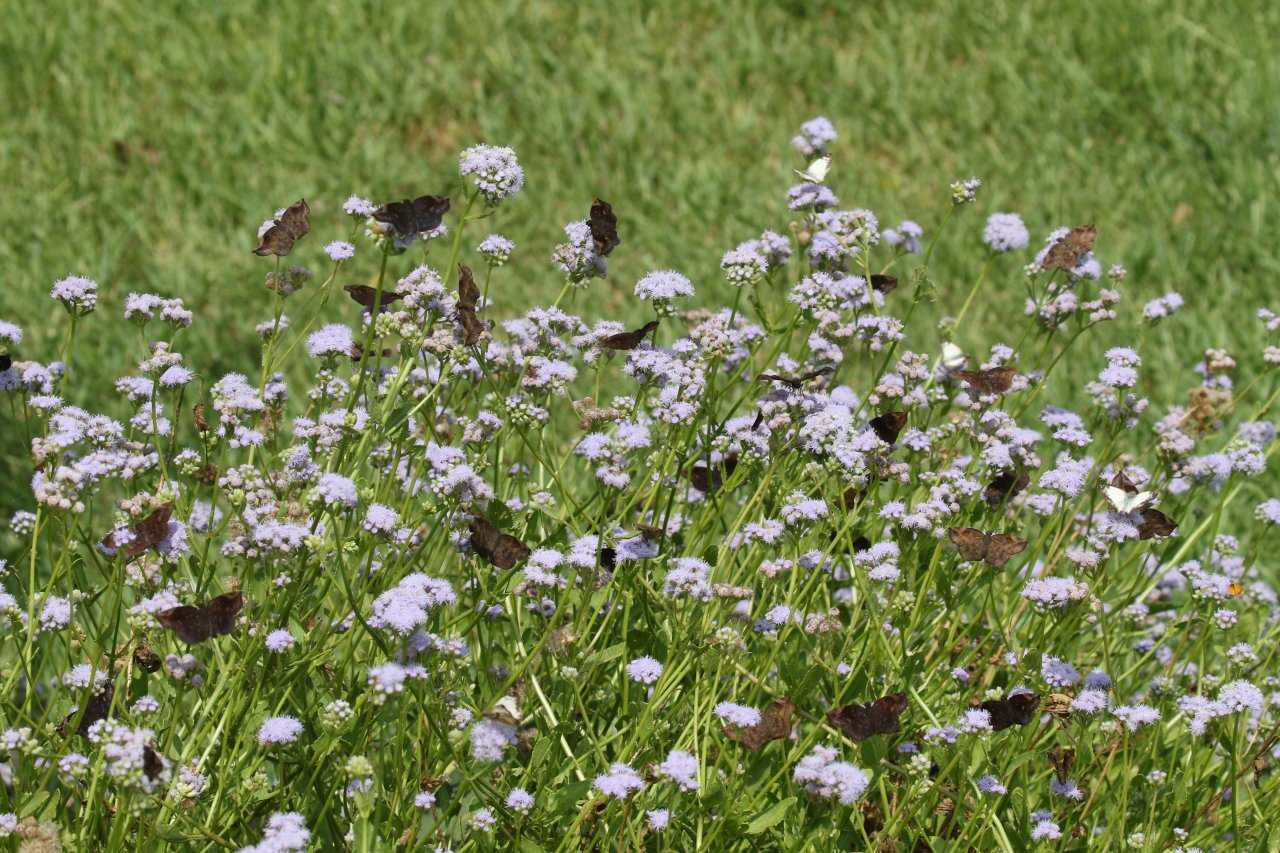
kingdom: Animalia
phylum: Arthropoda
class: Insecta
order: Lepidoptera
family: Hesperiidae
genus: Achlyodes
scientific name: Achlyodes thraso
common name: Sickle-winged Skipper
